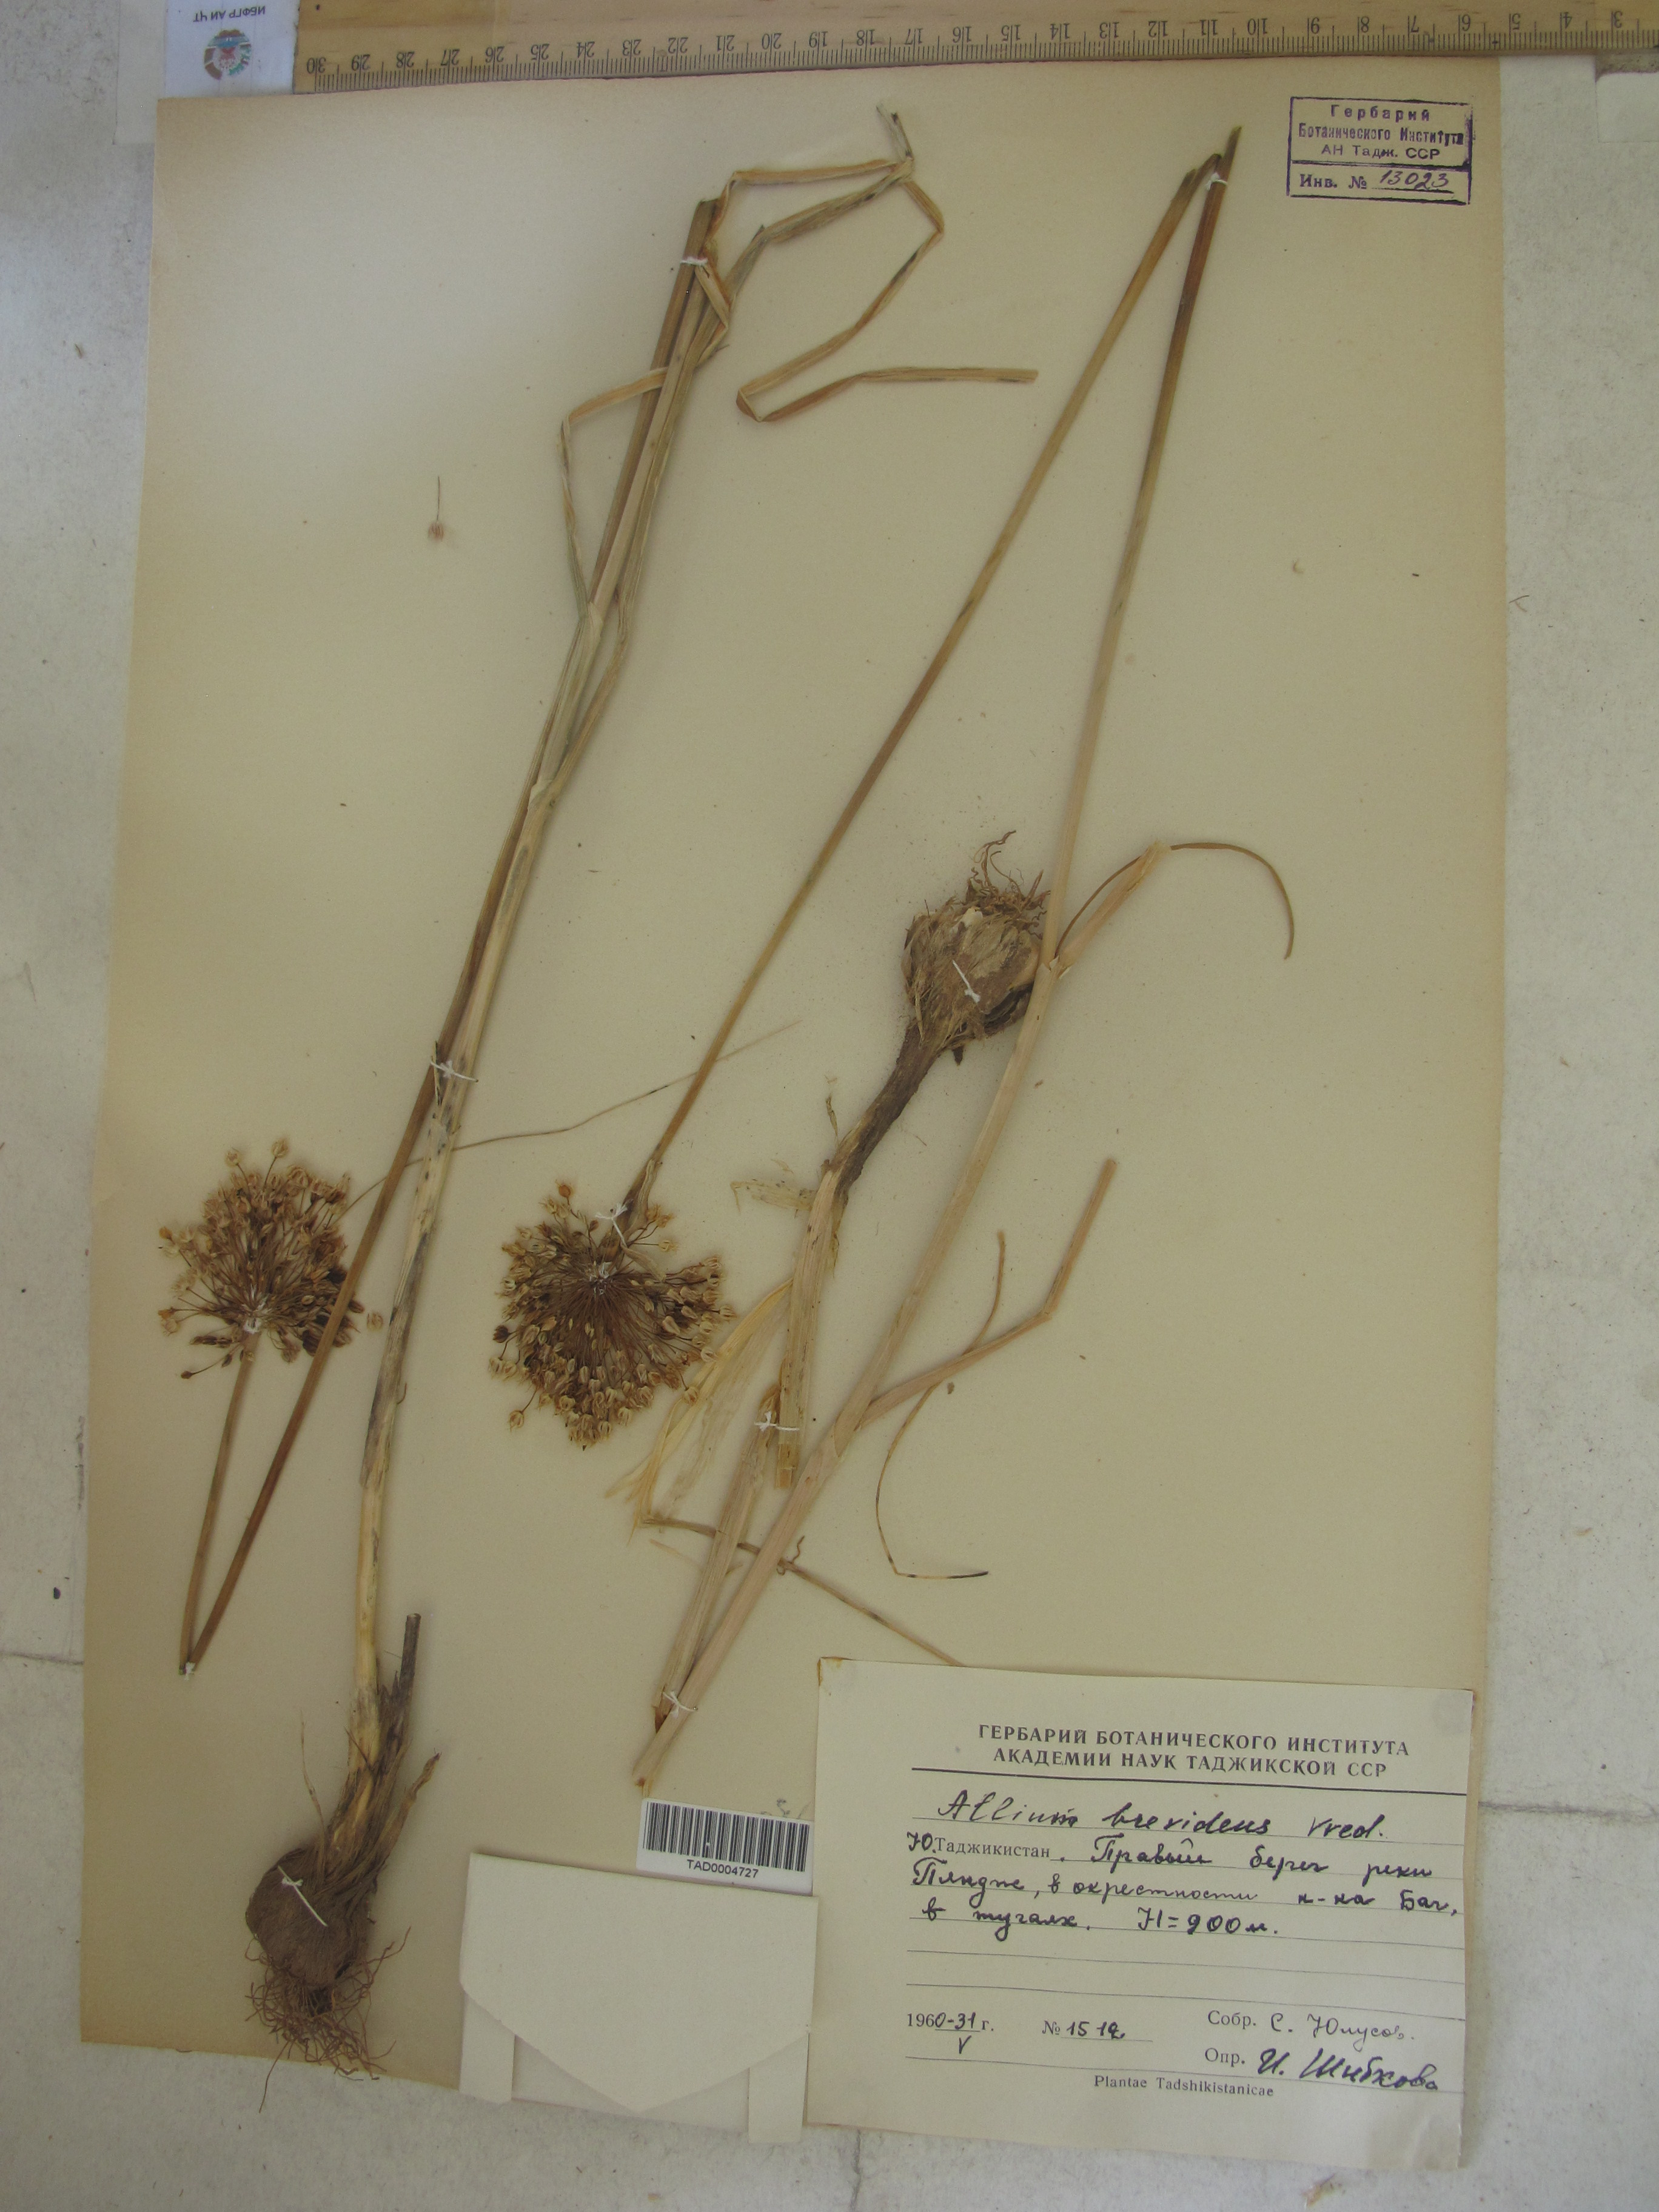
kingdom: Plantae
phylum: Tracheophyta
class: Liliopsida
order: Asparagales
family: Amaryllidaceae
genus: Allium
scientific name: Allium brevidens
